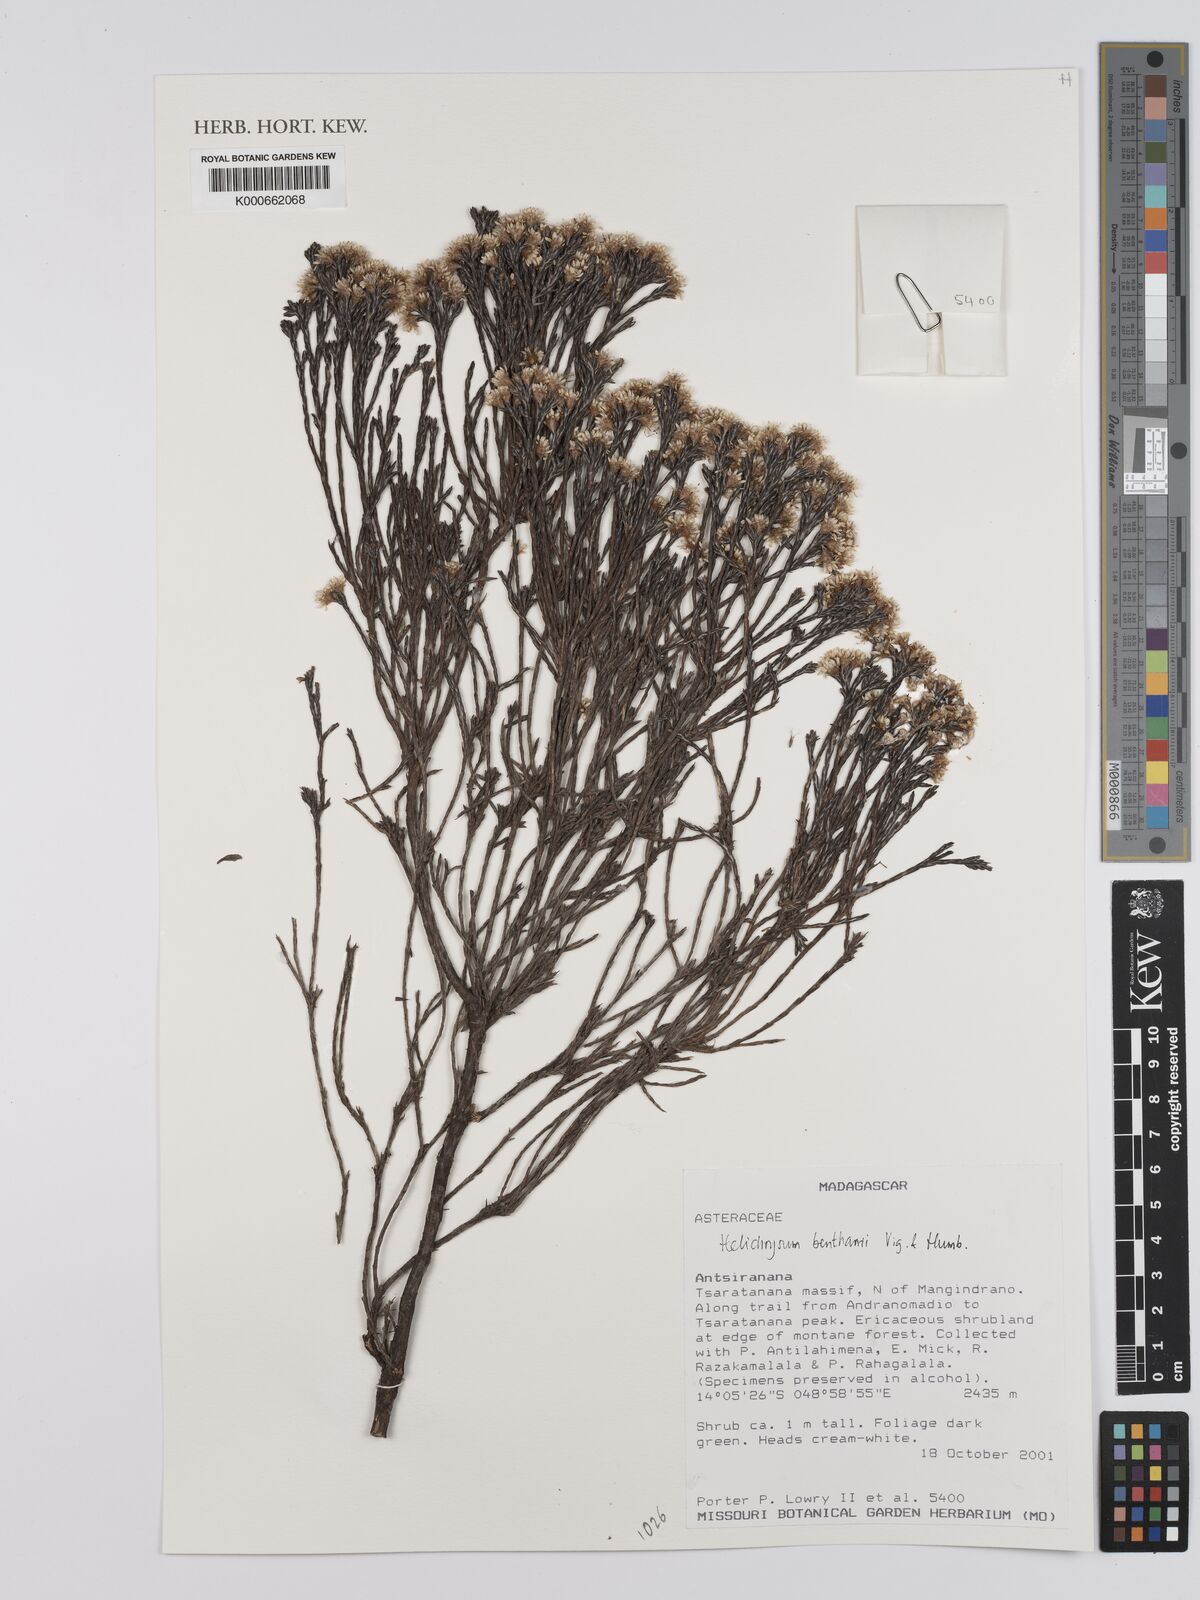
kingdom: Plantae
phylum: Tracheophyta
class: Magnoliopsida
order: Asterales
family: Asteraceae
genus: Helichrysum
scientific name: Helichrysum benthamii
